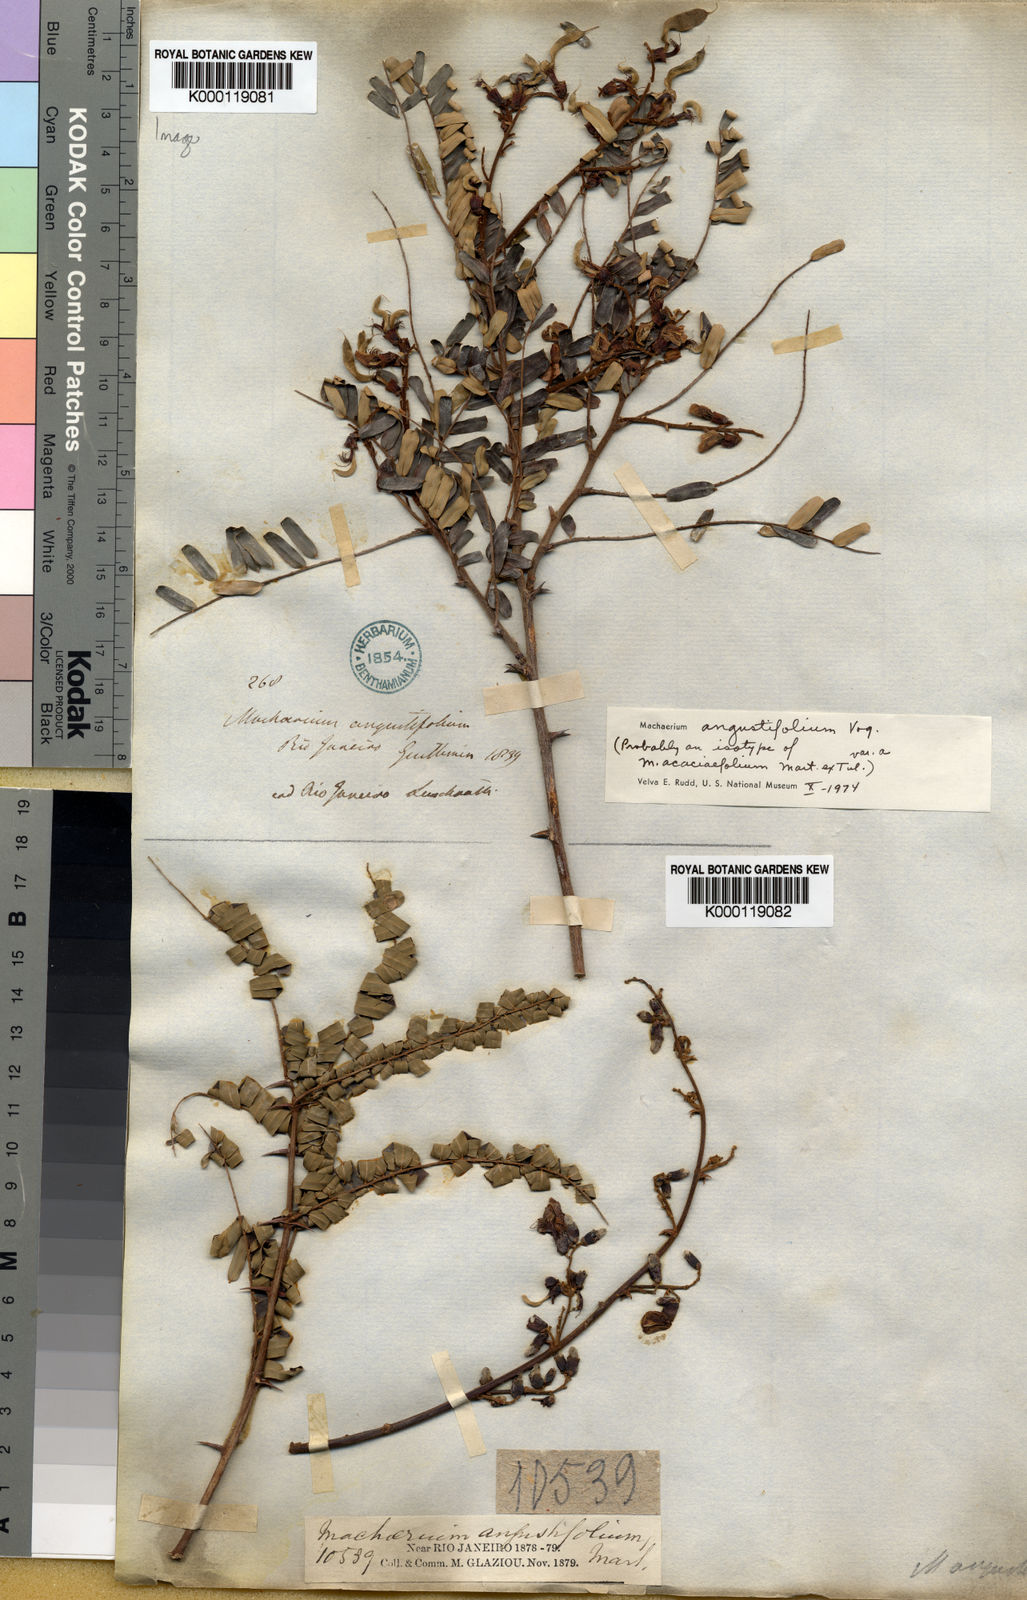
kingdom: Plantae
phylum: Tracheophyta
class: Magnoliopsida
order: Fabales
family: Fabaceae
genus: Machaerium
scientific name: Machaerium
